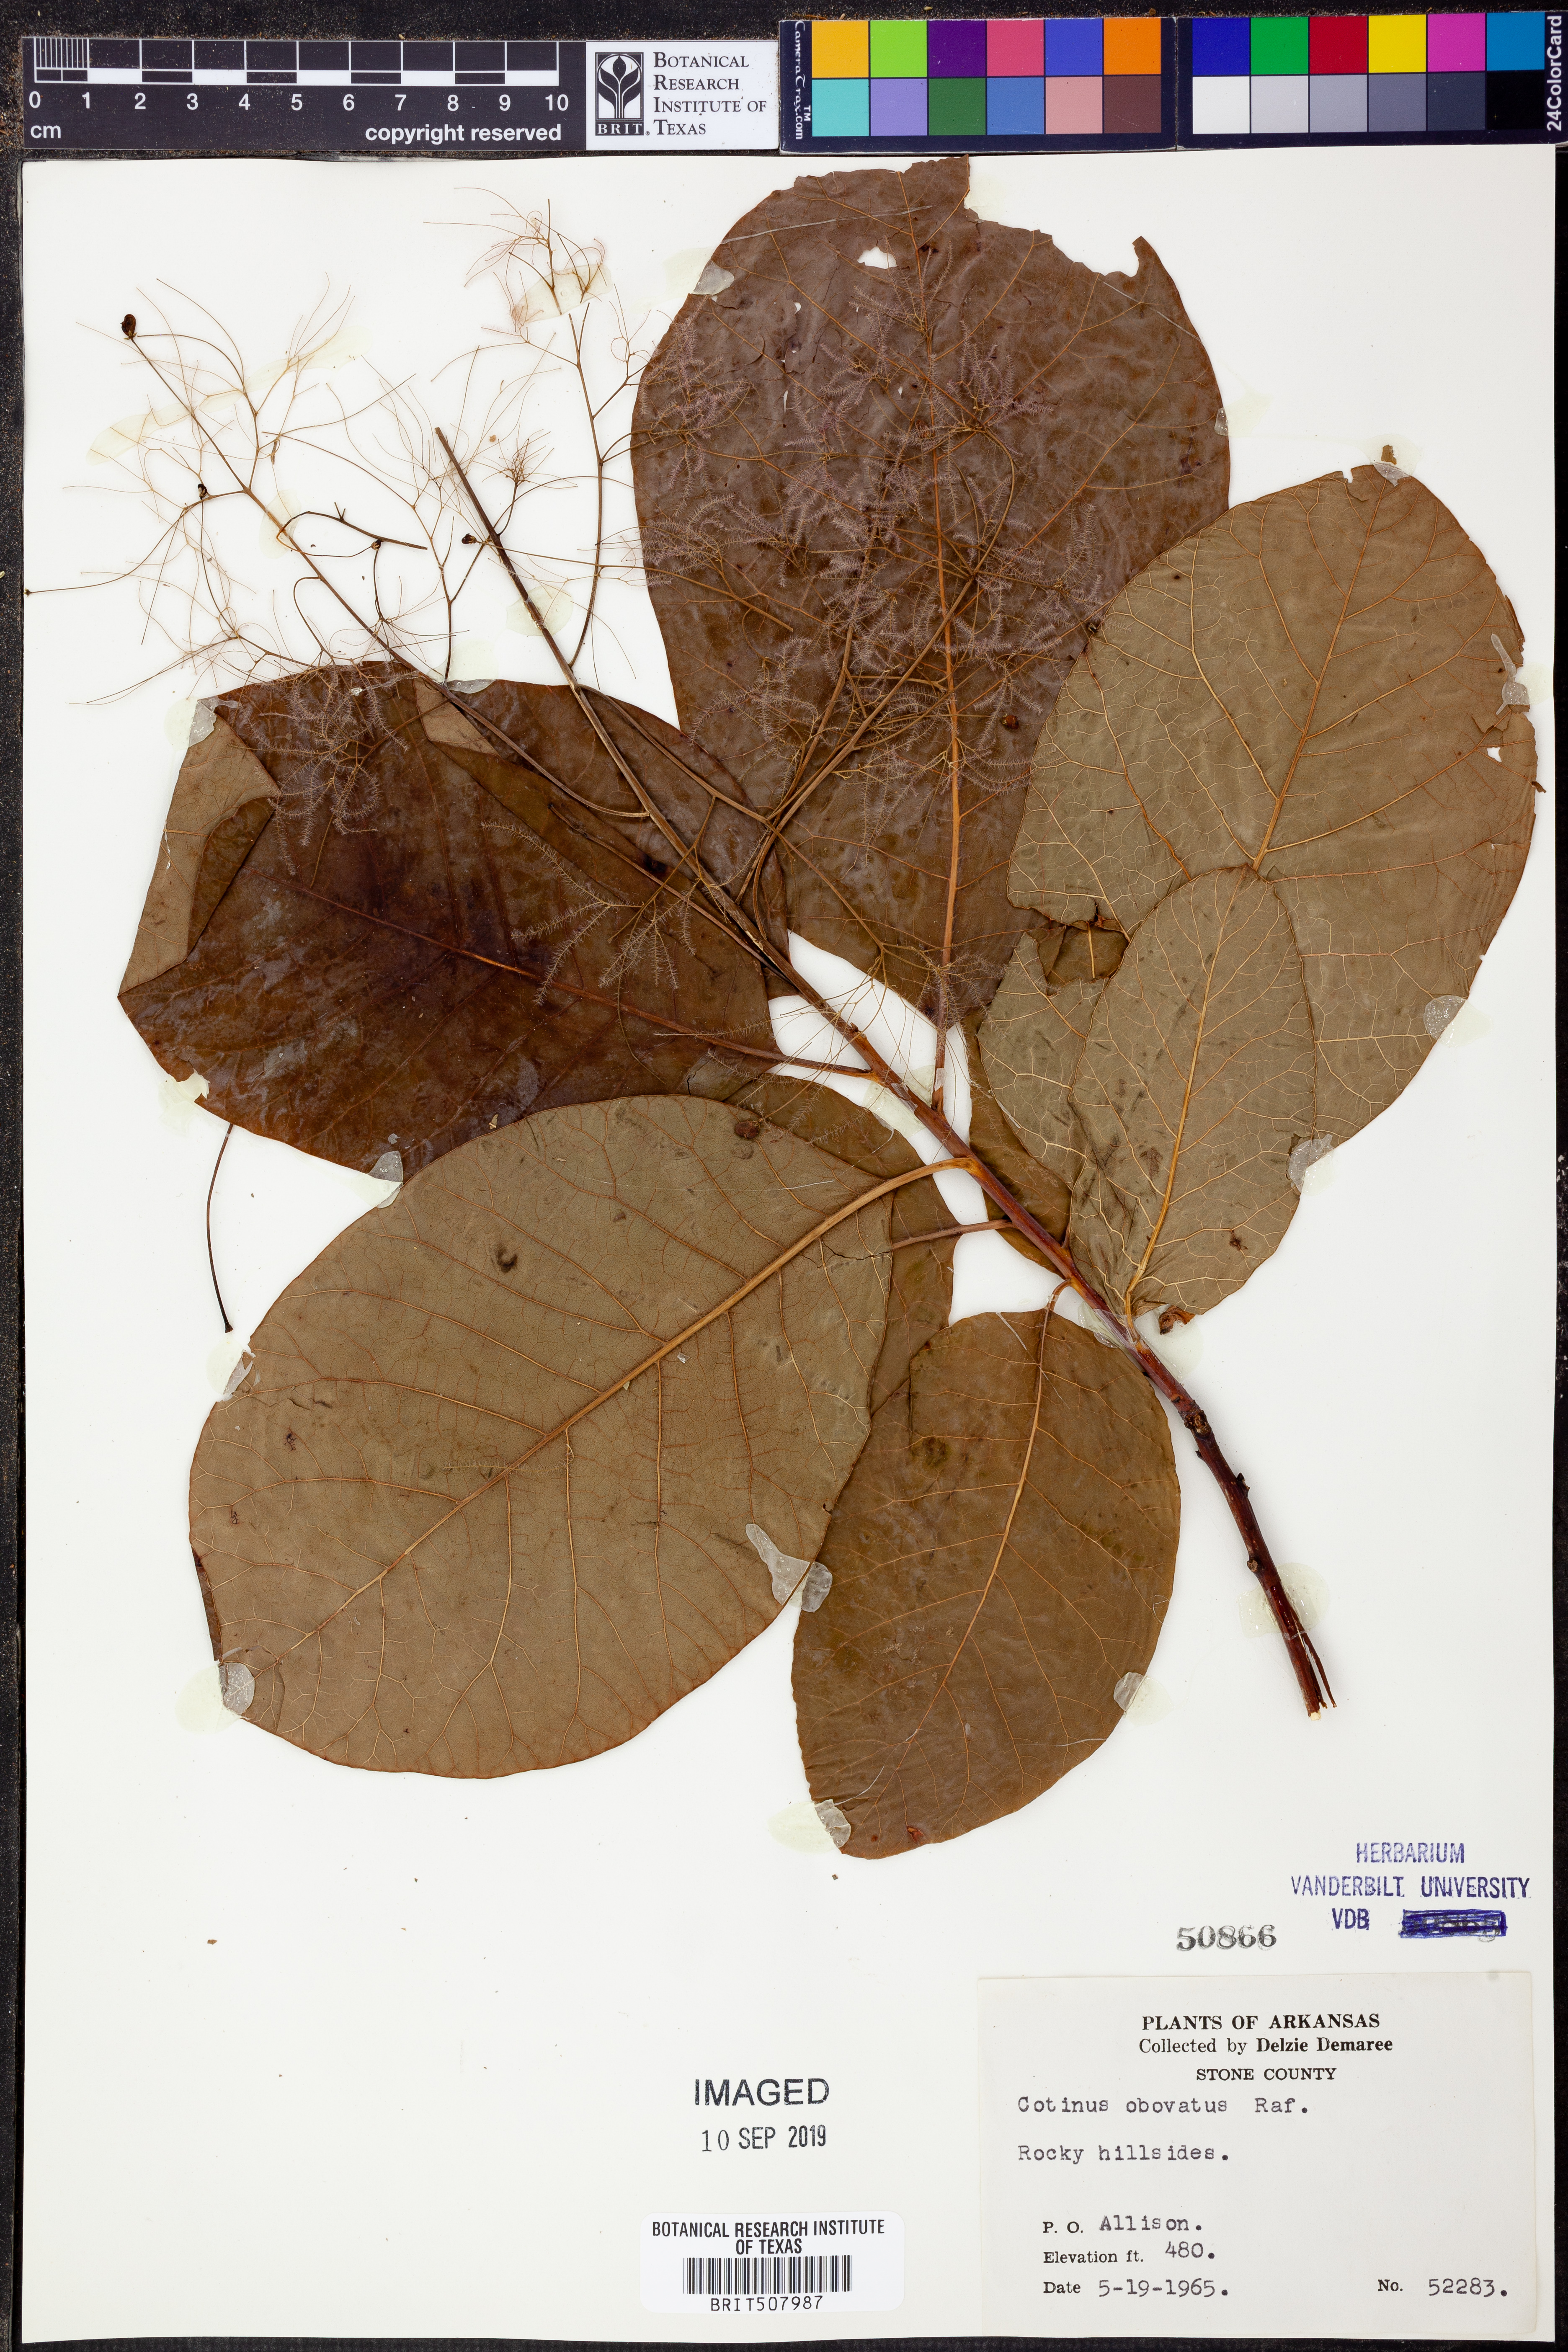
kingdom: Plantae
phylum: Tracheophyta
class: Magnoliopsida
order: Sapindales
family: Anacardiaceae
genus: Cotinus
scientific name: Cotinus obovatus
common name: Chittamwood
